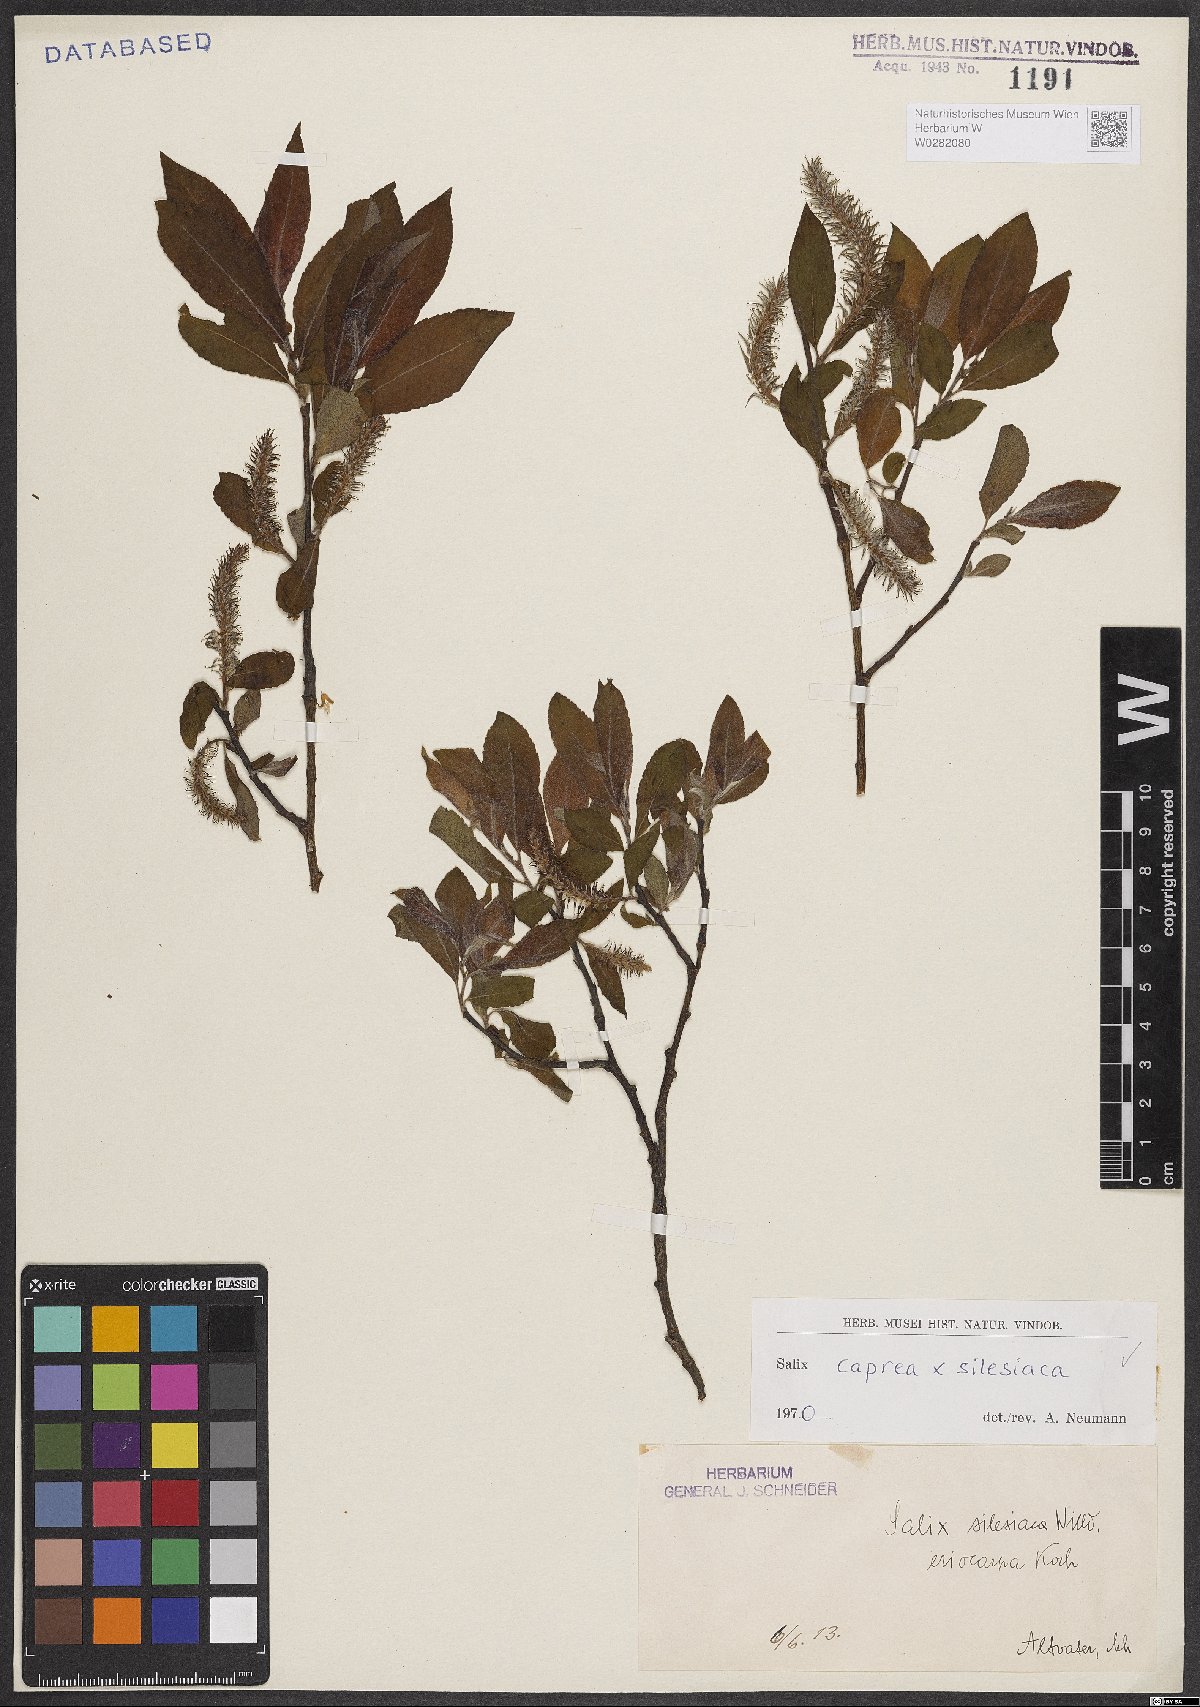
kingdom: Plantae
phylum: Tracheophyta
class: Magnoliopsida
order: Malpighiales
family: Salicaceae
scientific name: Salicaceae
